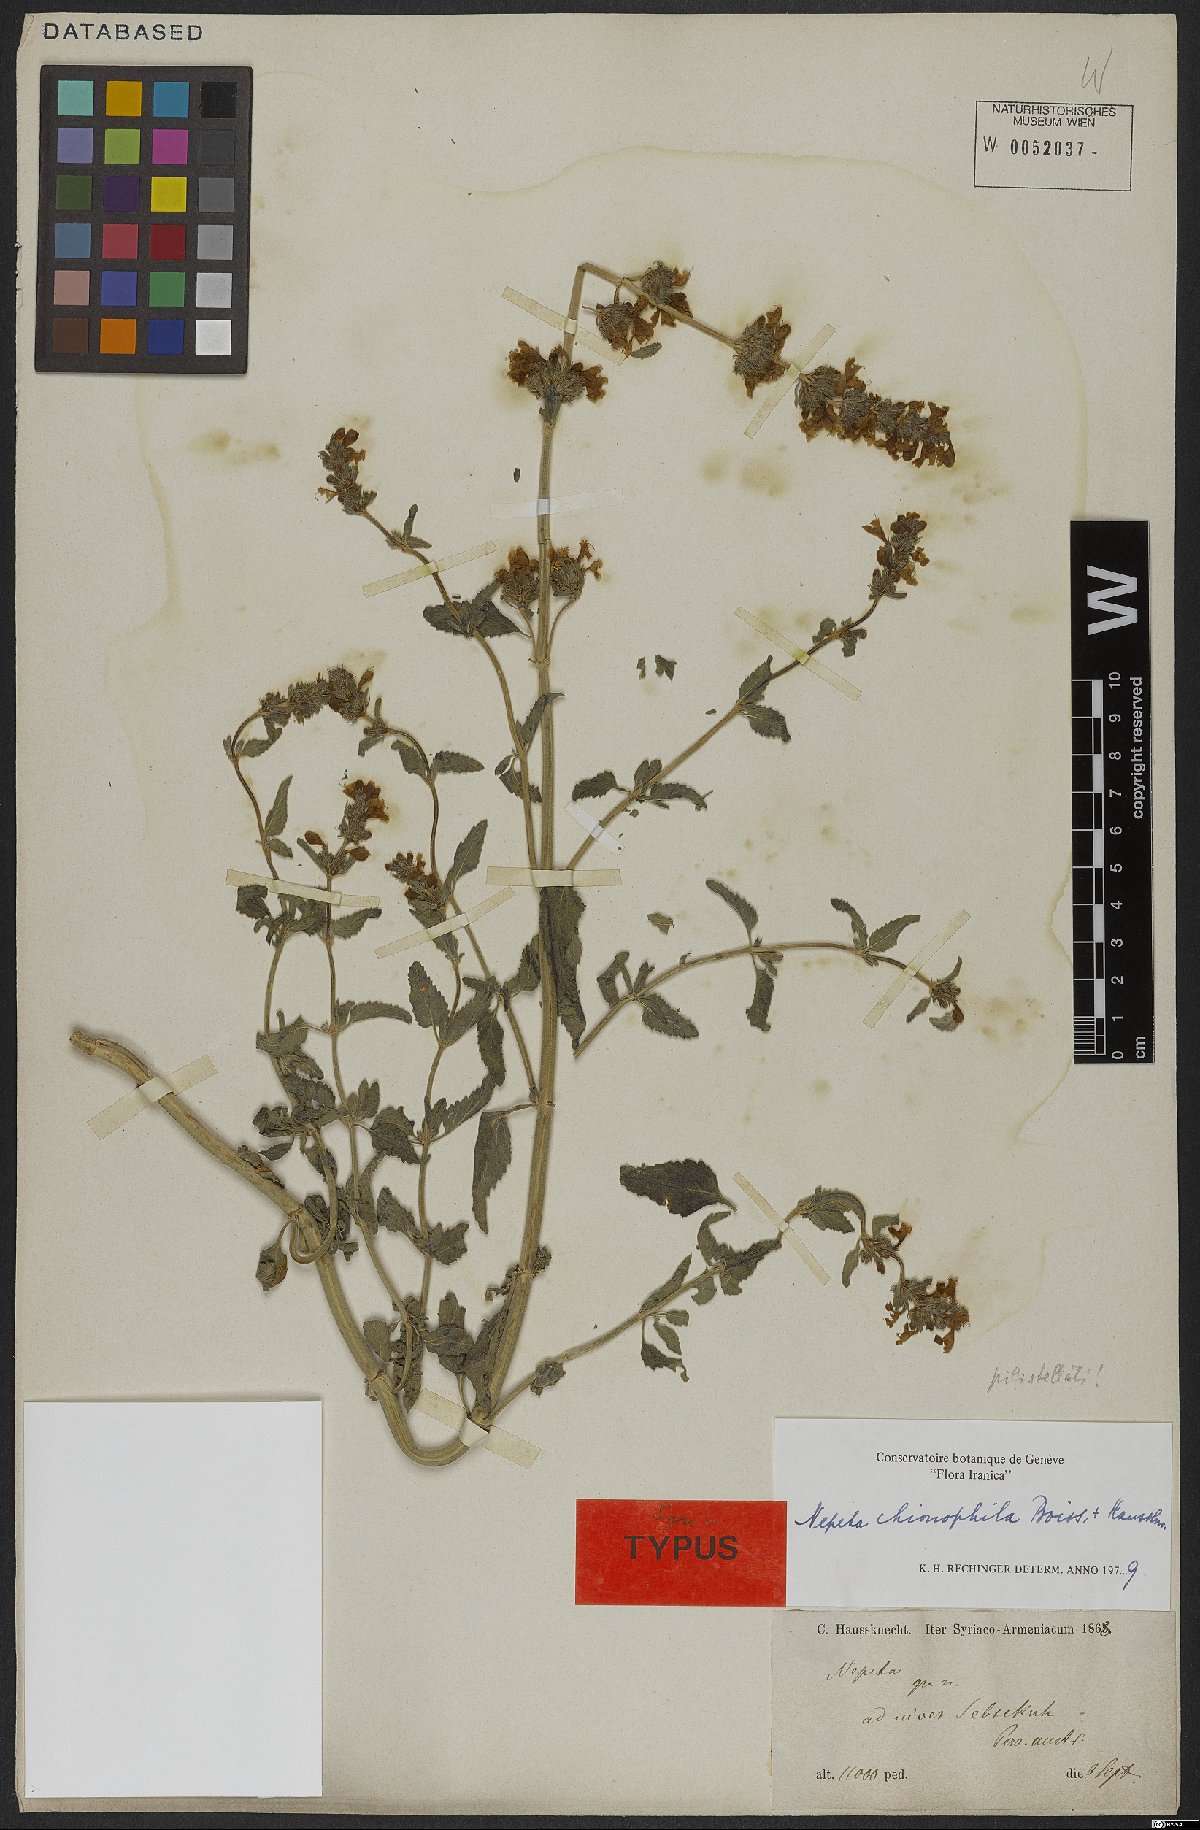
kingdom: Plantae
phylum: Tracheophyta
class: Magnoliopsida
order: Lamiales
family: Lamiaceae
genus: Nepeta
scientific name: Nepeta chionophila
